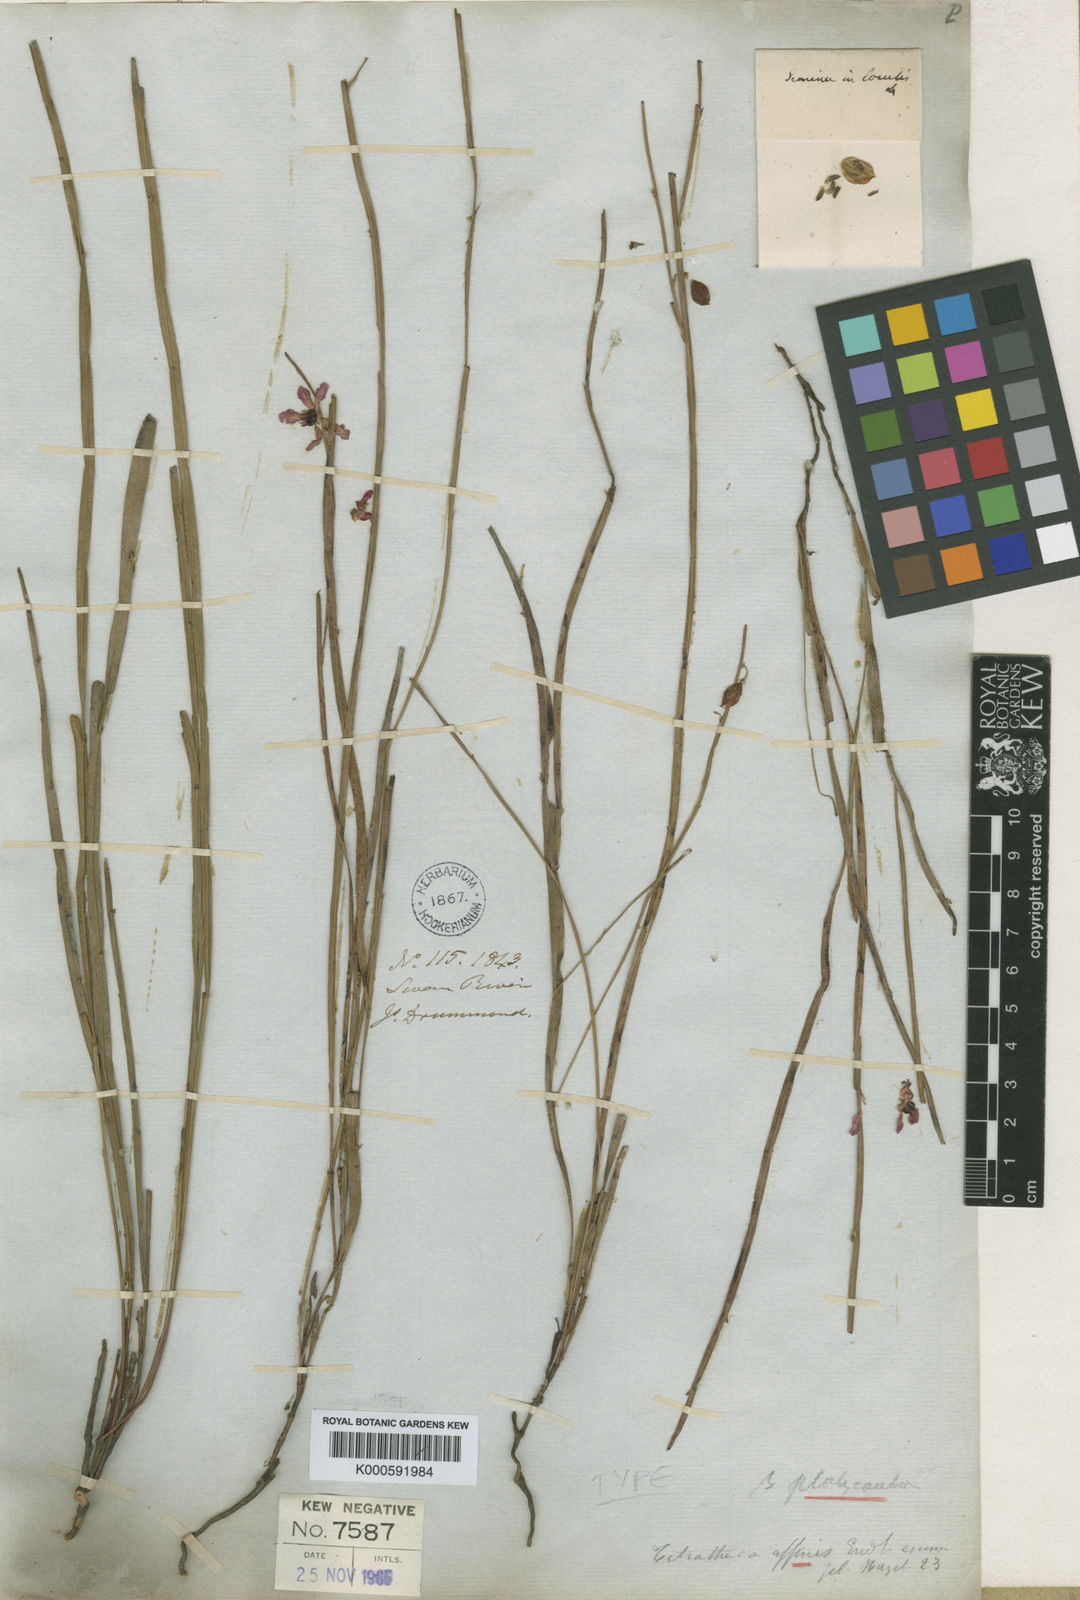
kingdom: Plantae
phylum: Tracheophyta
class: Magnoliopsida
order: Oxalidales
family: Elaeocarpaceae
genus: Tetratheca
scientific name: Tetratheca affinis
